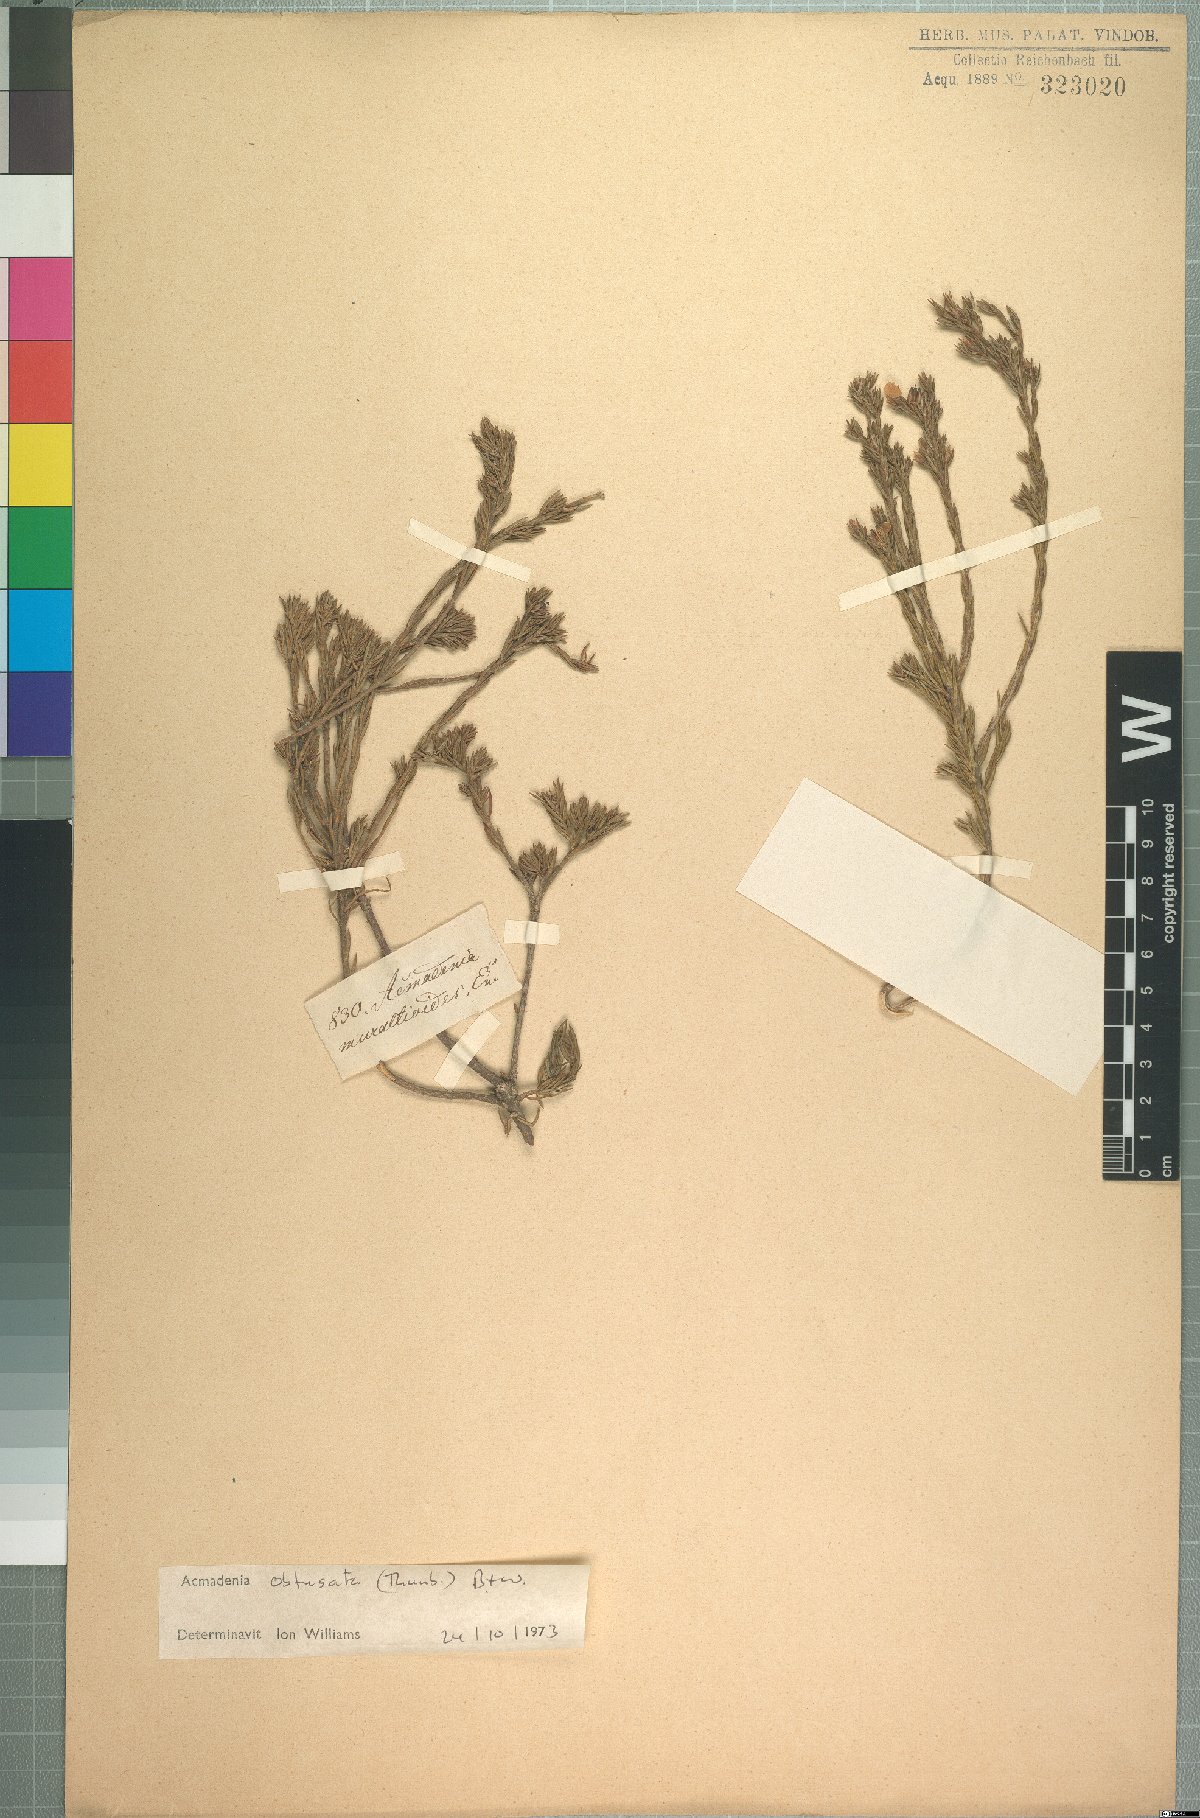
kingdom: Plantae
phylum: Tracheophyta
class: Magnoliopsida
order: Sapindales
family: Rutaceae
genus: Acmadenia
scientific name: Acmadenia obtusata
